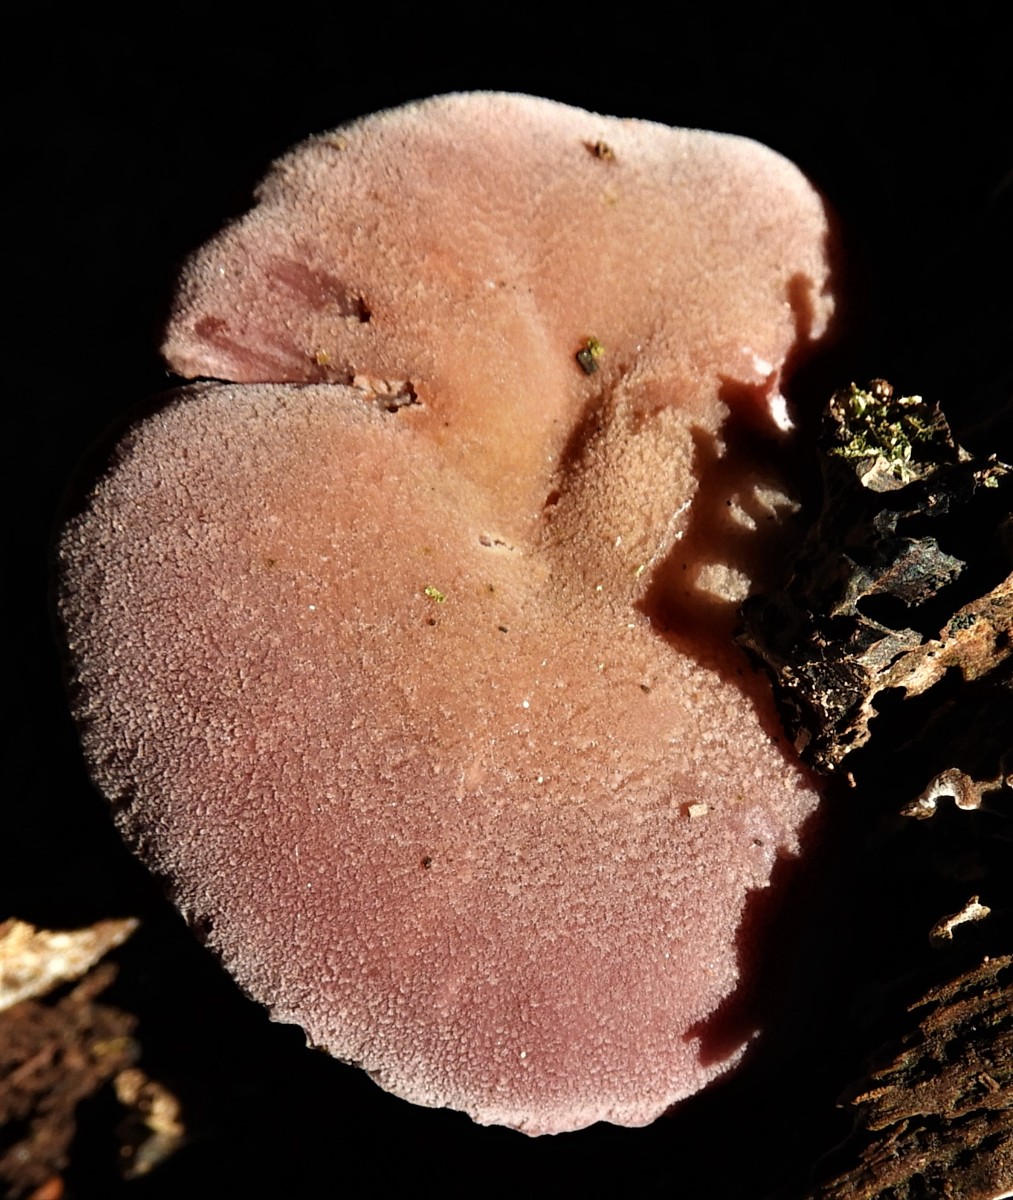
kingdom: Fungi
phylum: Basidiomycota
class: Agaricomycetes
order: Agaricales
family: Hydnangiaceae
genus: Laccaria
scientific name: Laccaria laccata
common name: rød ametysthat
